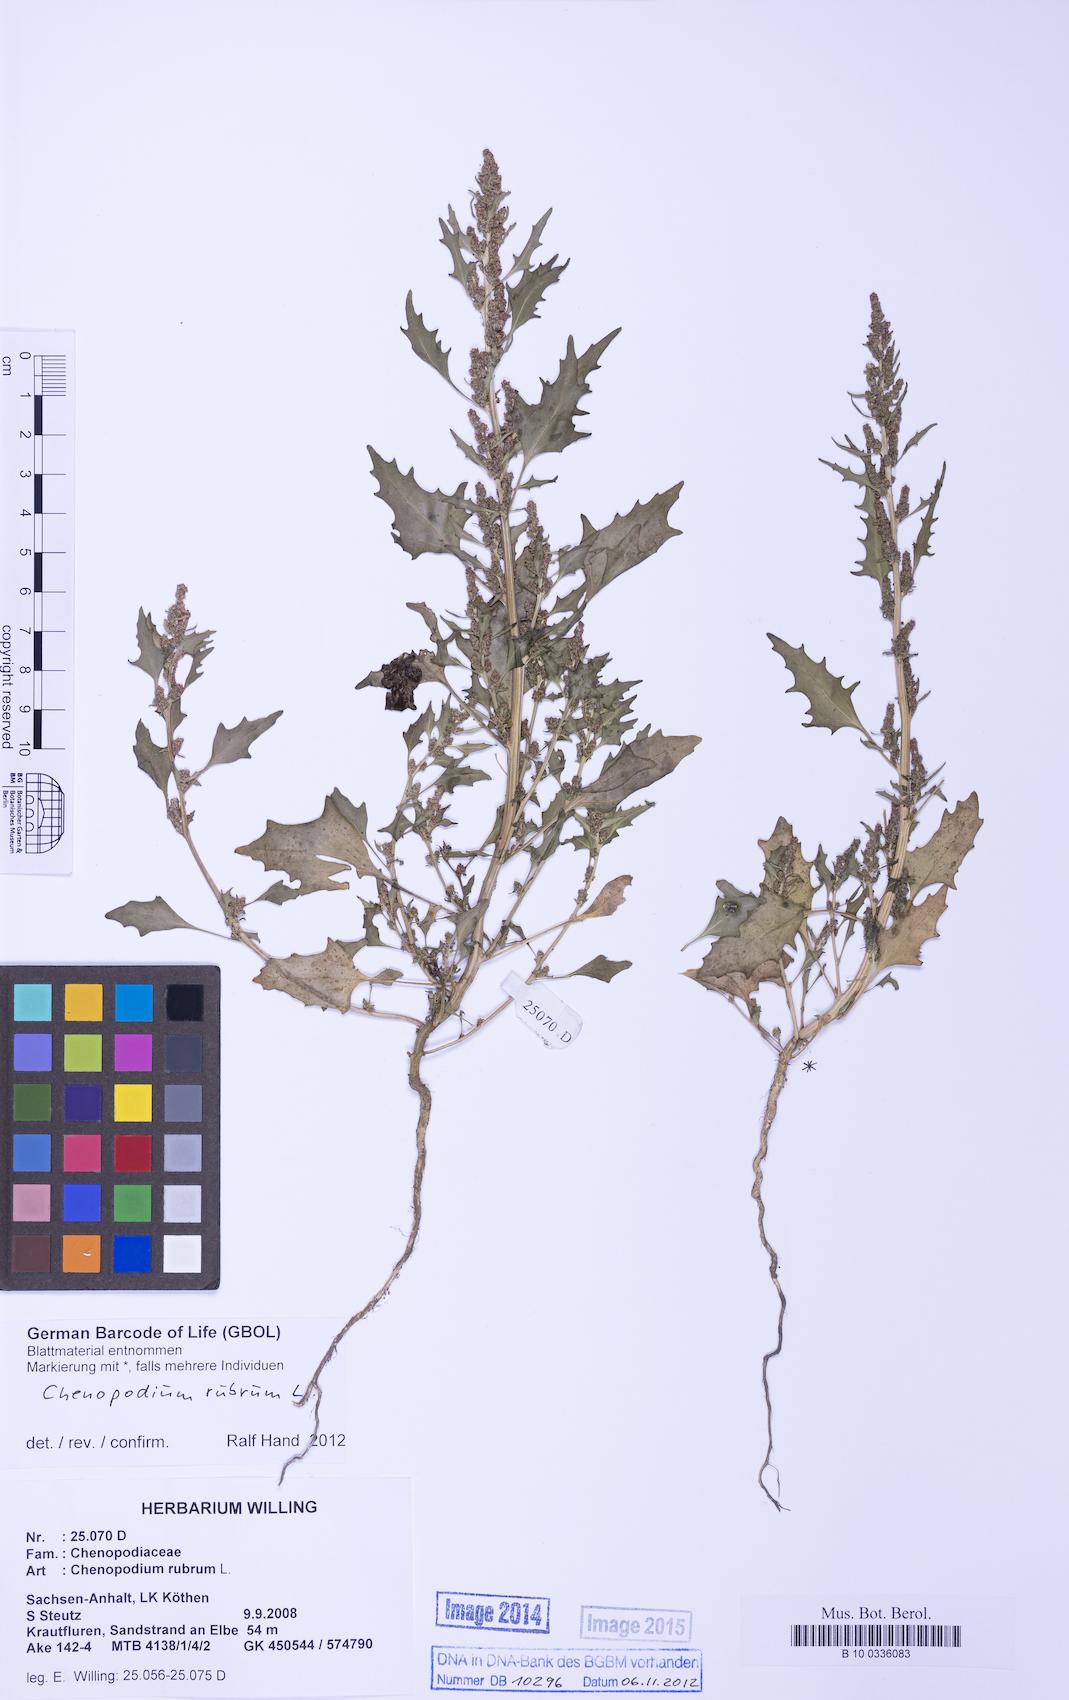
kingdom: Plantae
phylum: Tracheophyta
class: Magnoliopsida
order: Caryophyllales
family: Amaranthaceae
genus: Oxybasis
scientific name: Oxybasis rubra
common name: Red goosefoot
